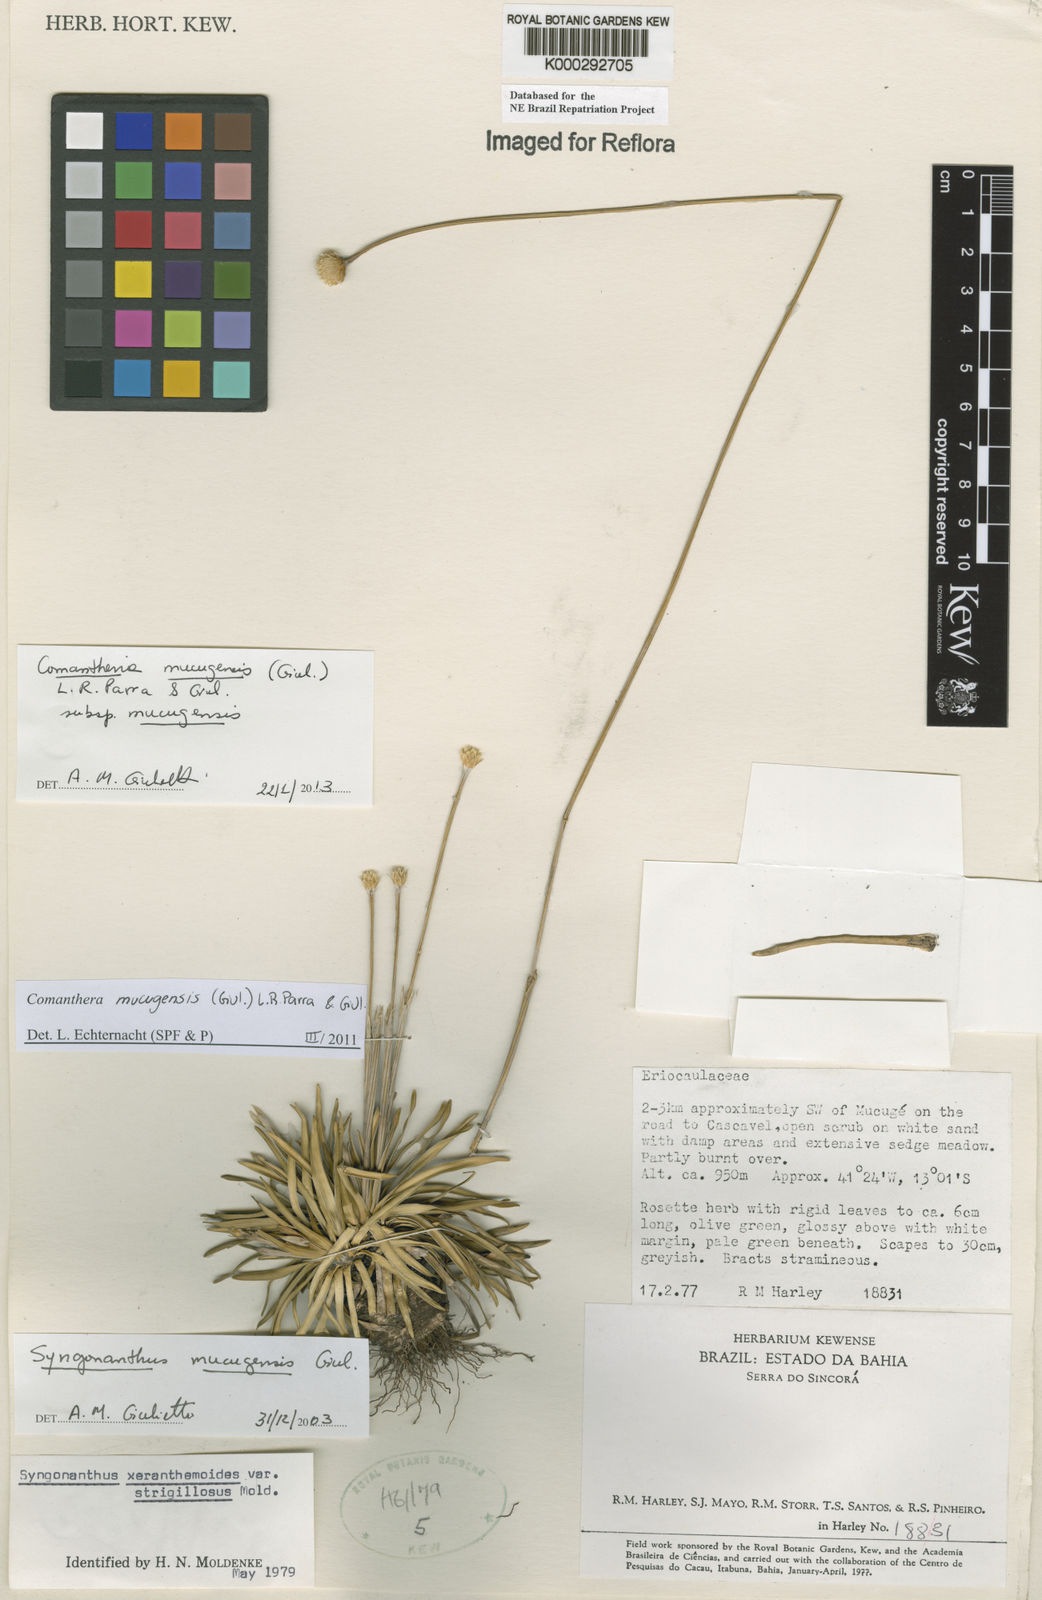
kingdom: Plantae
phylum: Tracheophyta
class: Liliopsida
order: Poales
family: Eriocaulaceae
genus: Comanthera
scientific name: Comanthera mucugensis
